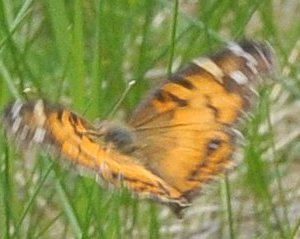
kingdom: Animalia
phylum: Arthropoda
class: Insecta
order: Lepidoptera
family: Nymphalidae
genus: Vanessa
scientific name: Vanessa virginiensis
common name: American Lady
